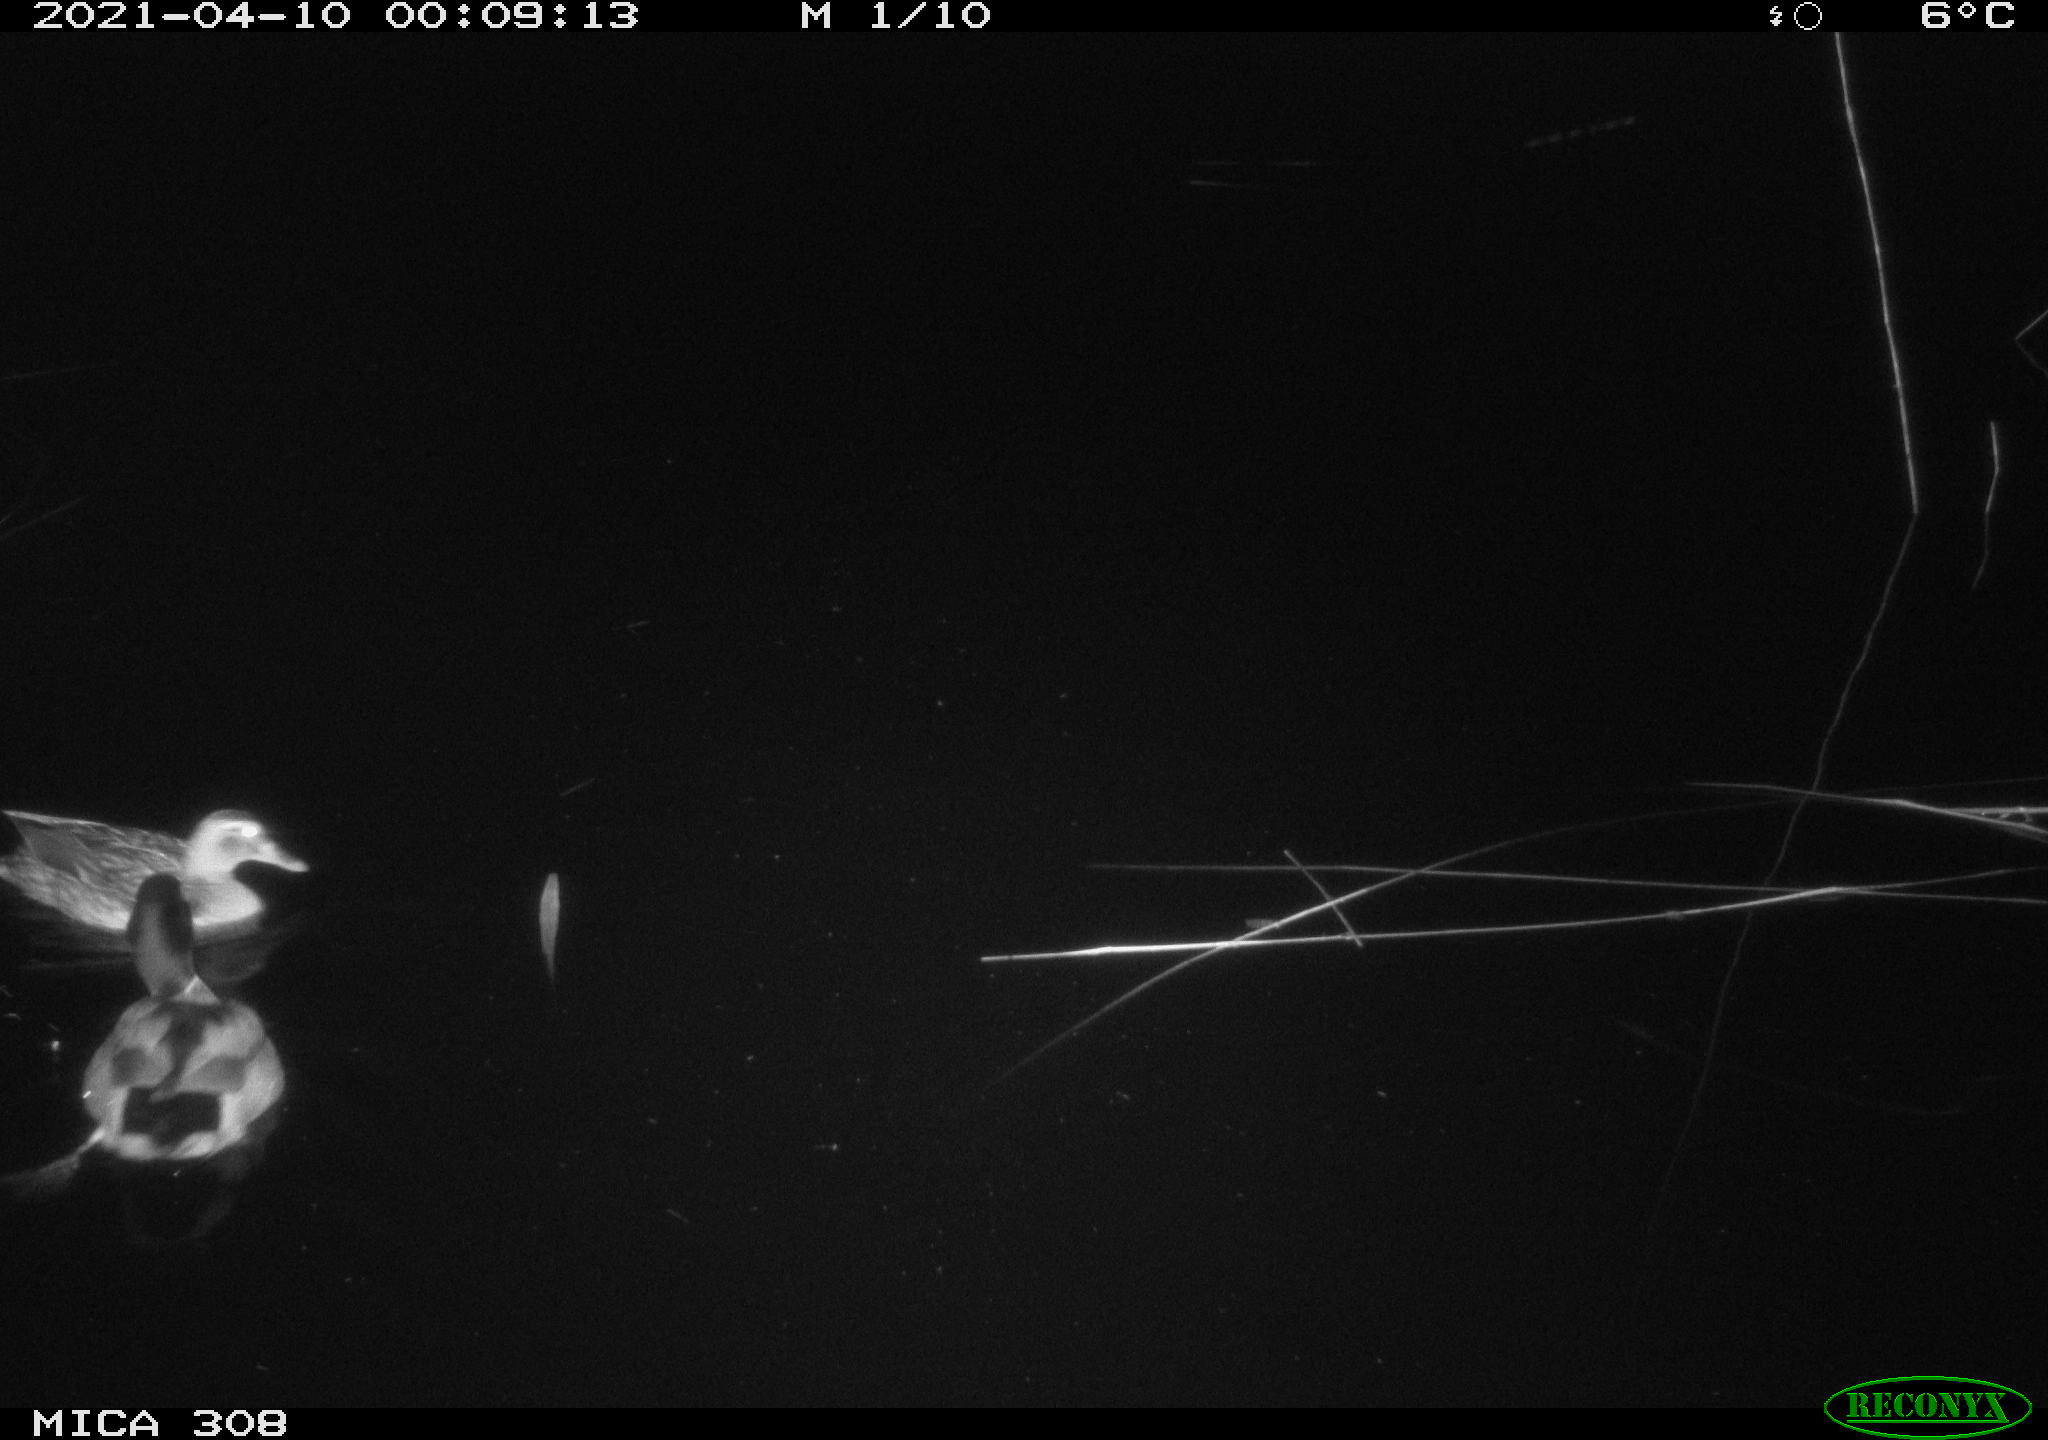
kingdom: Animalia
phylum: Chordata
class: Aves
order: Anseriformes
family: Anatidae
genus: Anas
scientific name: Anas platyrhynchos
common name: Mallard
